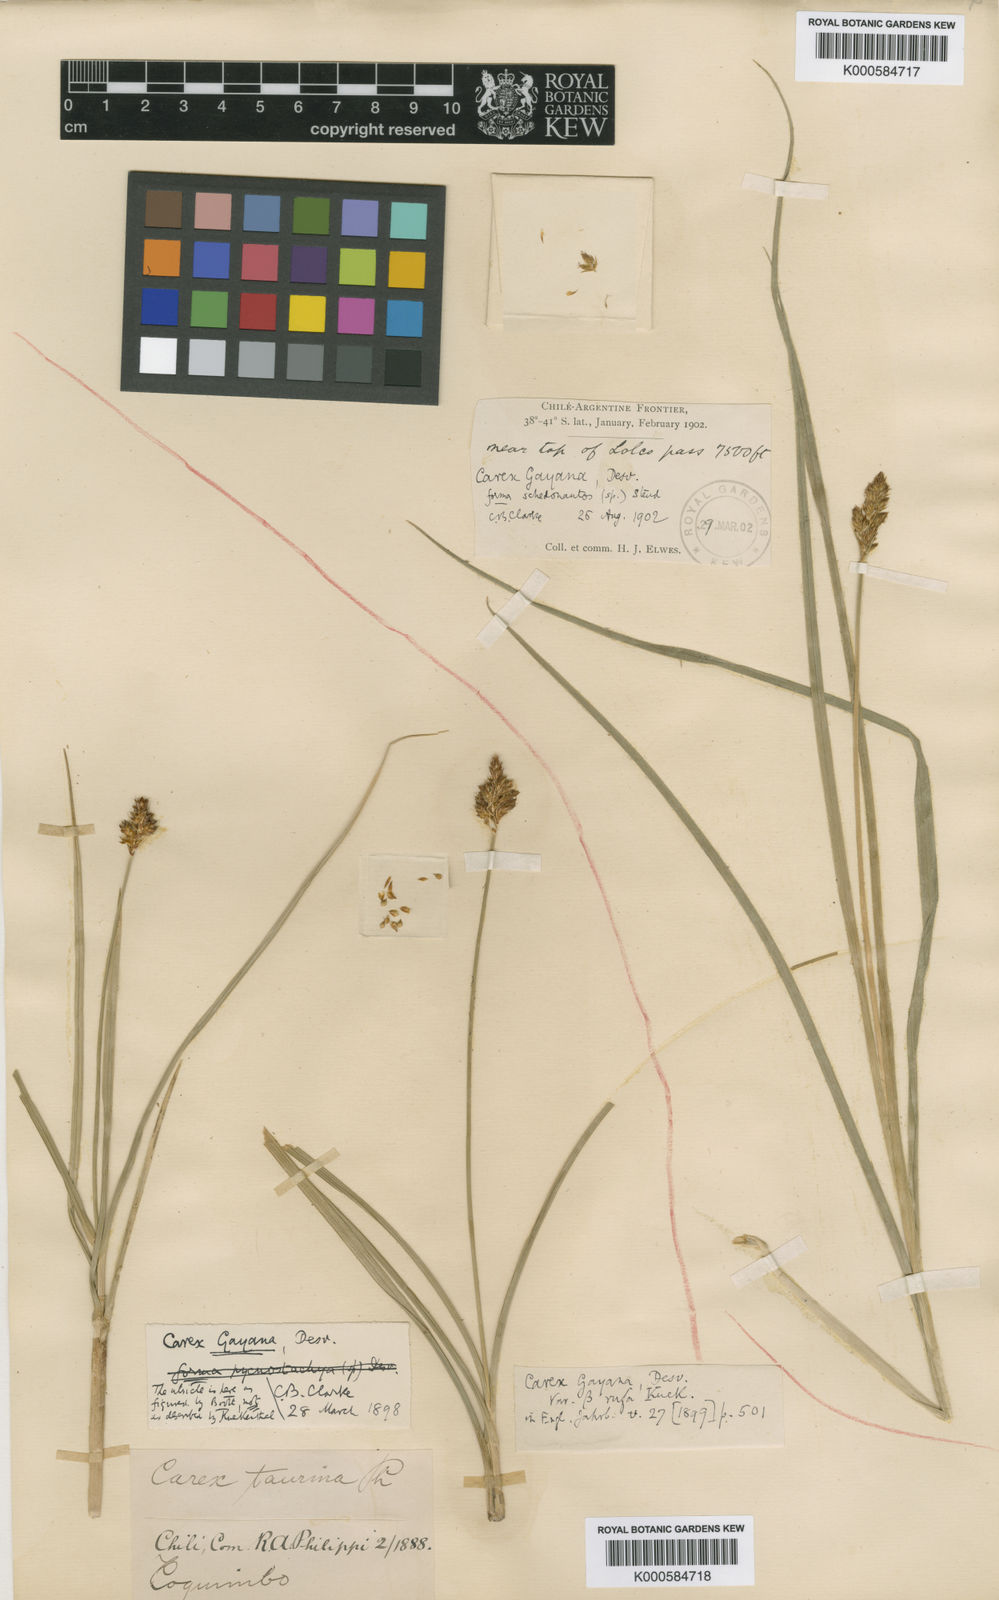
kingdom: Plantae
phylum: Tracheophyta
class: Liliopsida
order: Poales
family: Cyperaceae
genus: Carex
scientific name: Carex gayana
